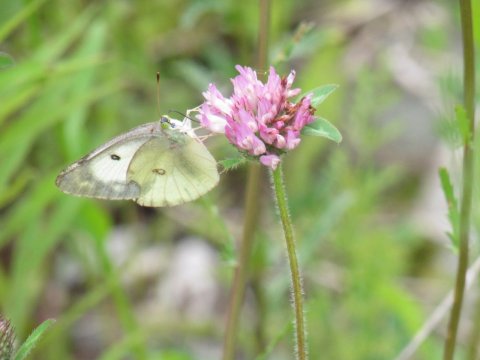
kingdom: Animalia
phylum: Arthropoda
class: Insecta
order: Lepidoptera
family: Pieridae
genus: Colias
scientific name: Colias philodice
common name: Clouded Sulphur
